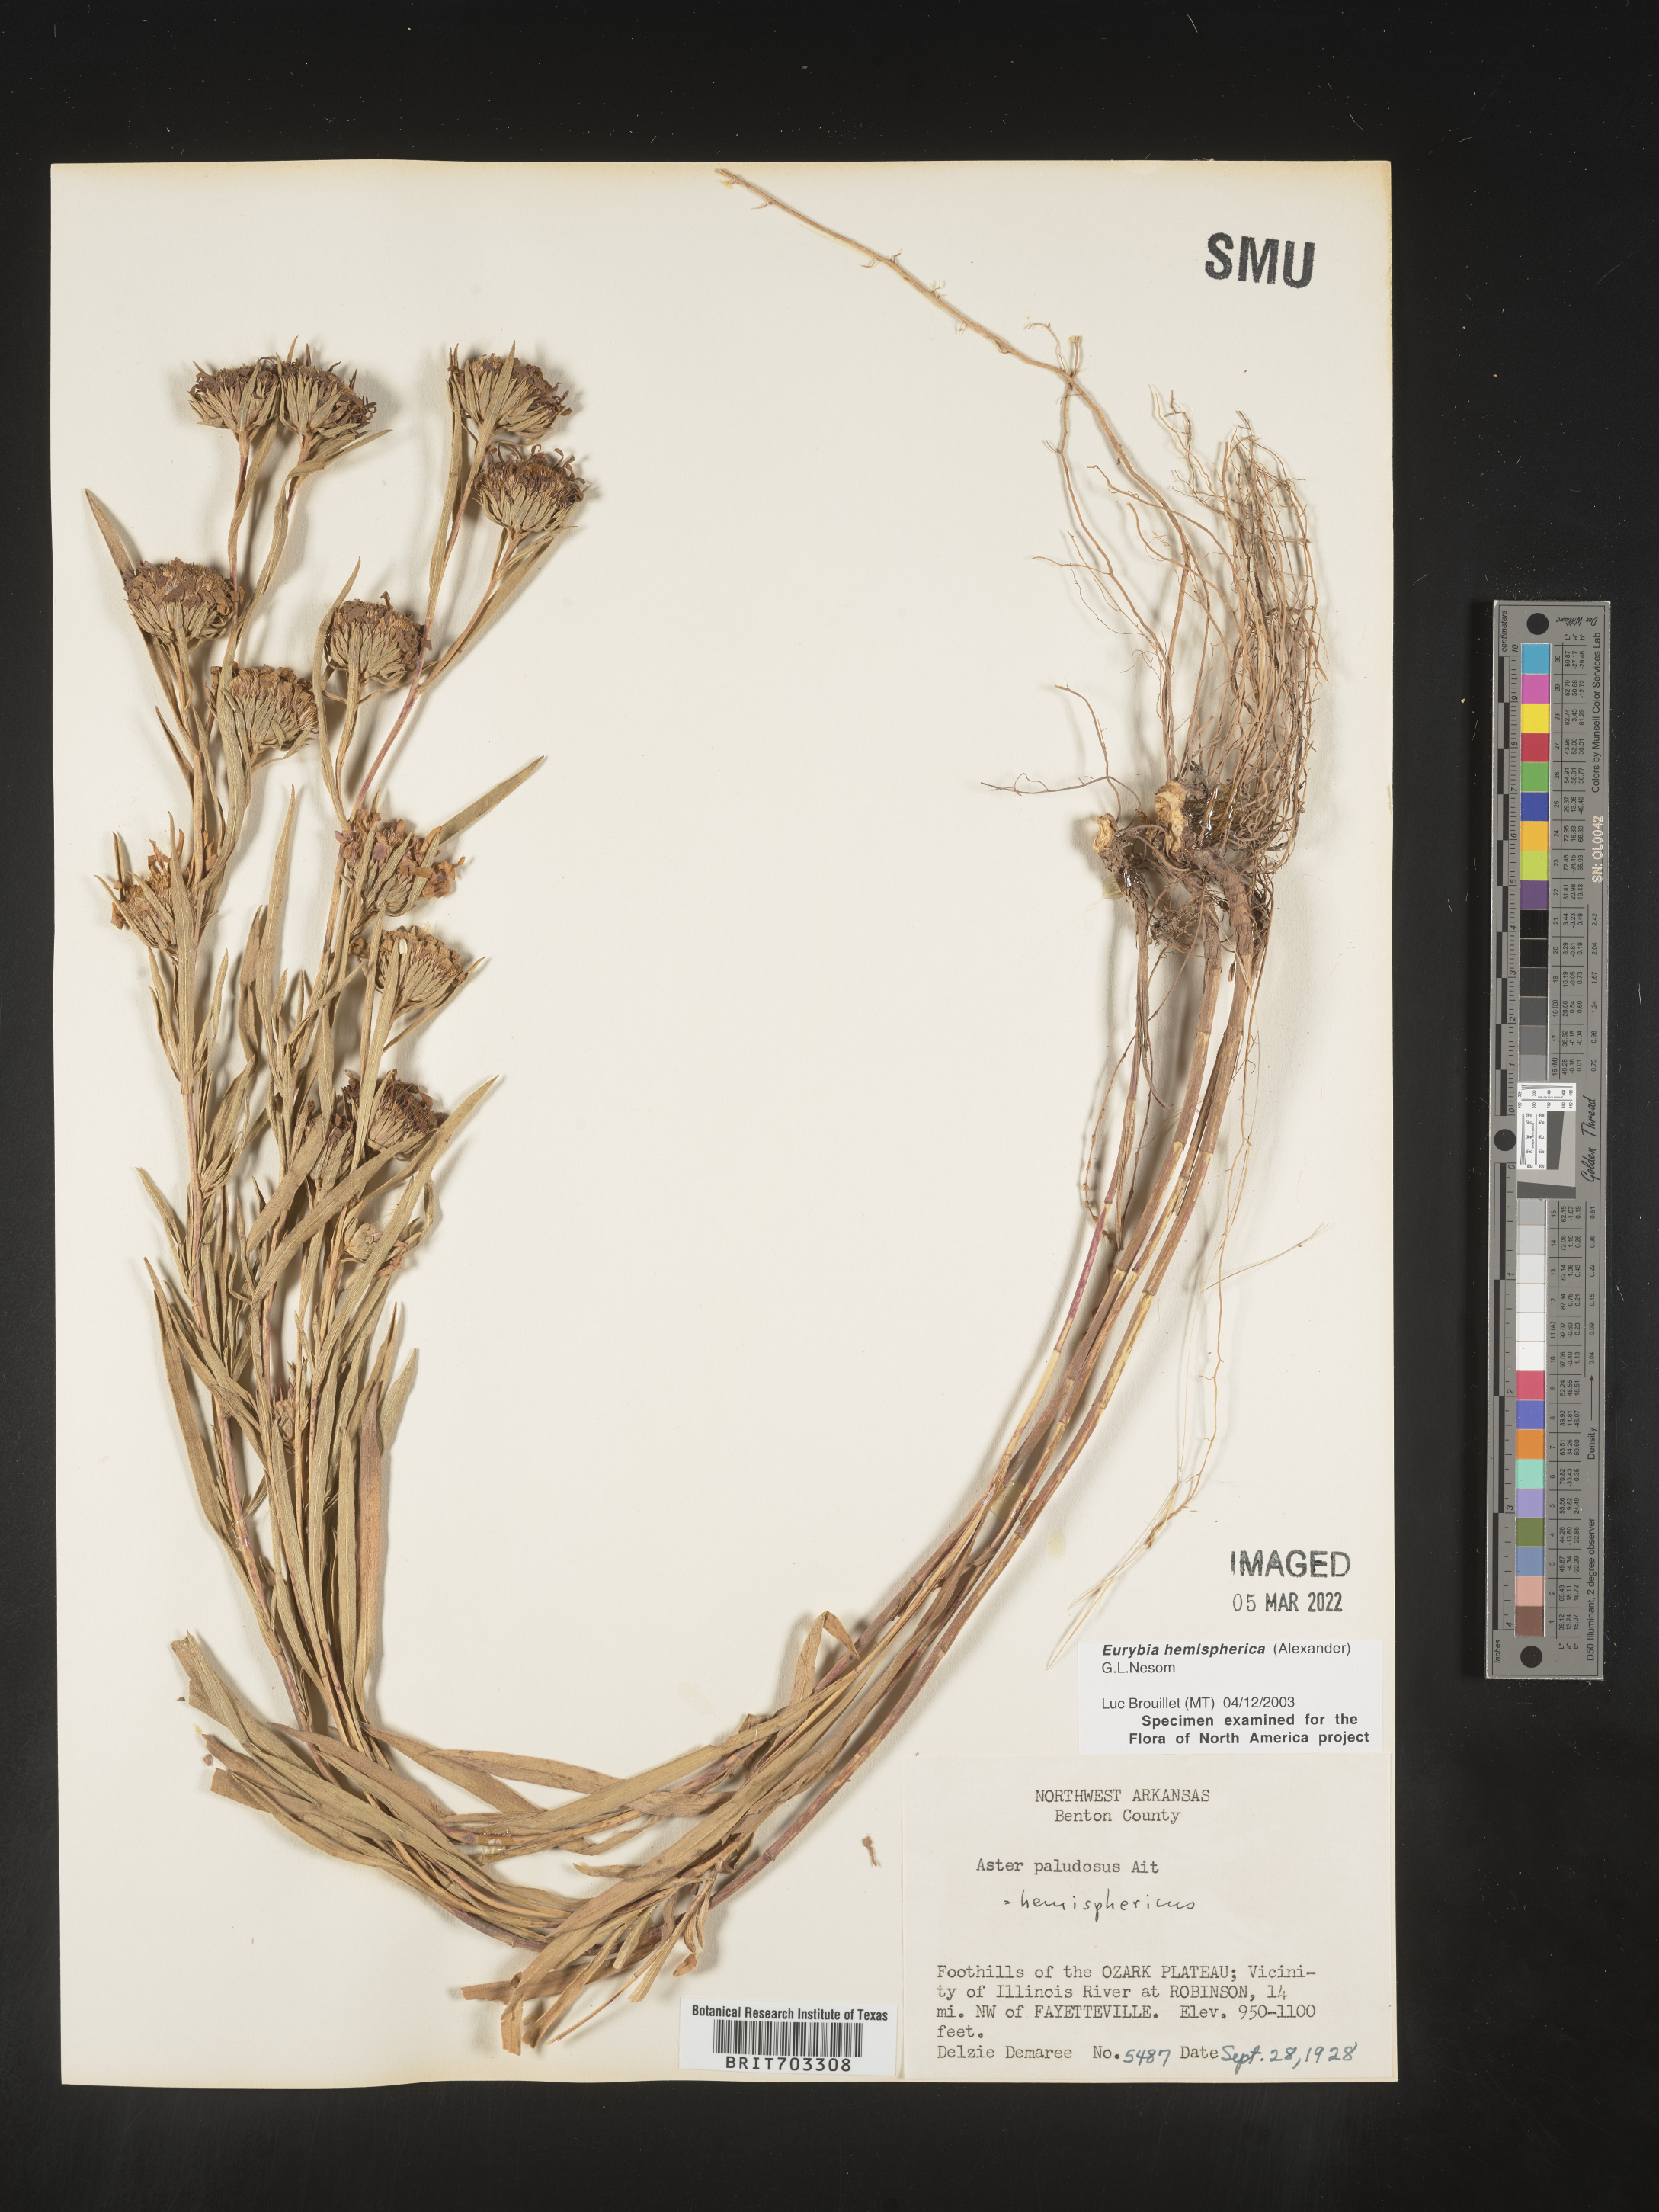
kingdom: Plantae
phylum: Tracheophyta
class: Magnoliopsida
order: Asterales
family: Asteraceae
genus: Eurybia
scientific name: Eurybia hemispherica
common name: Showy aster
